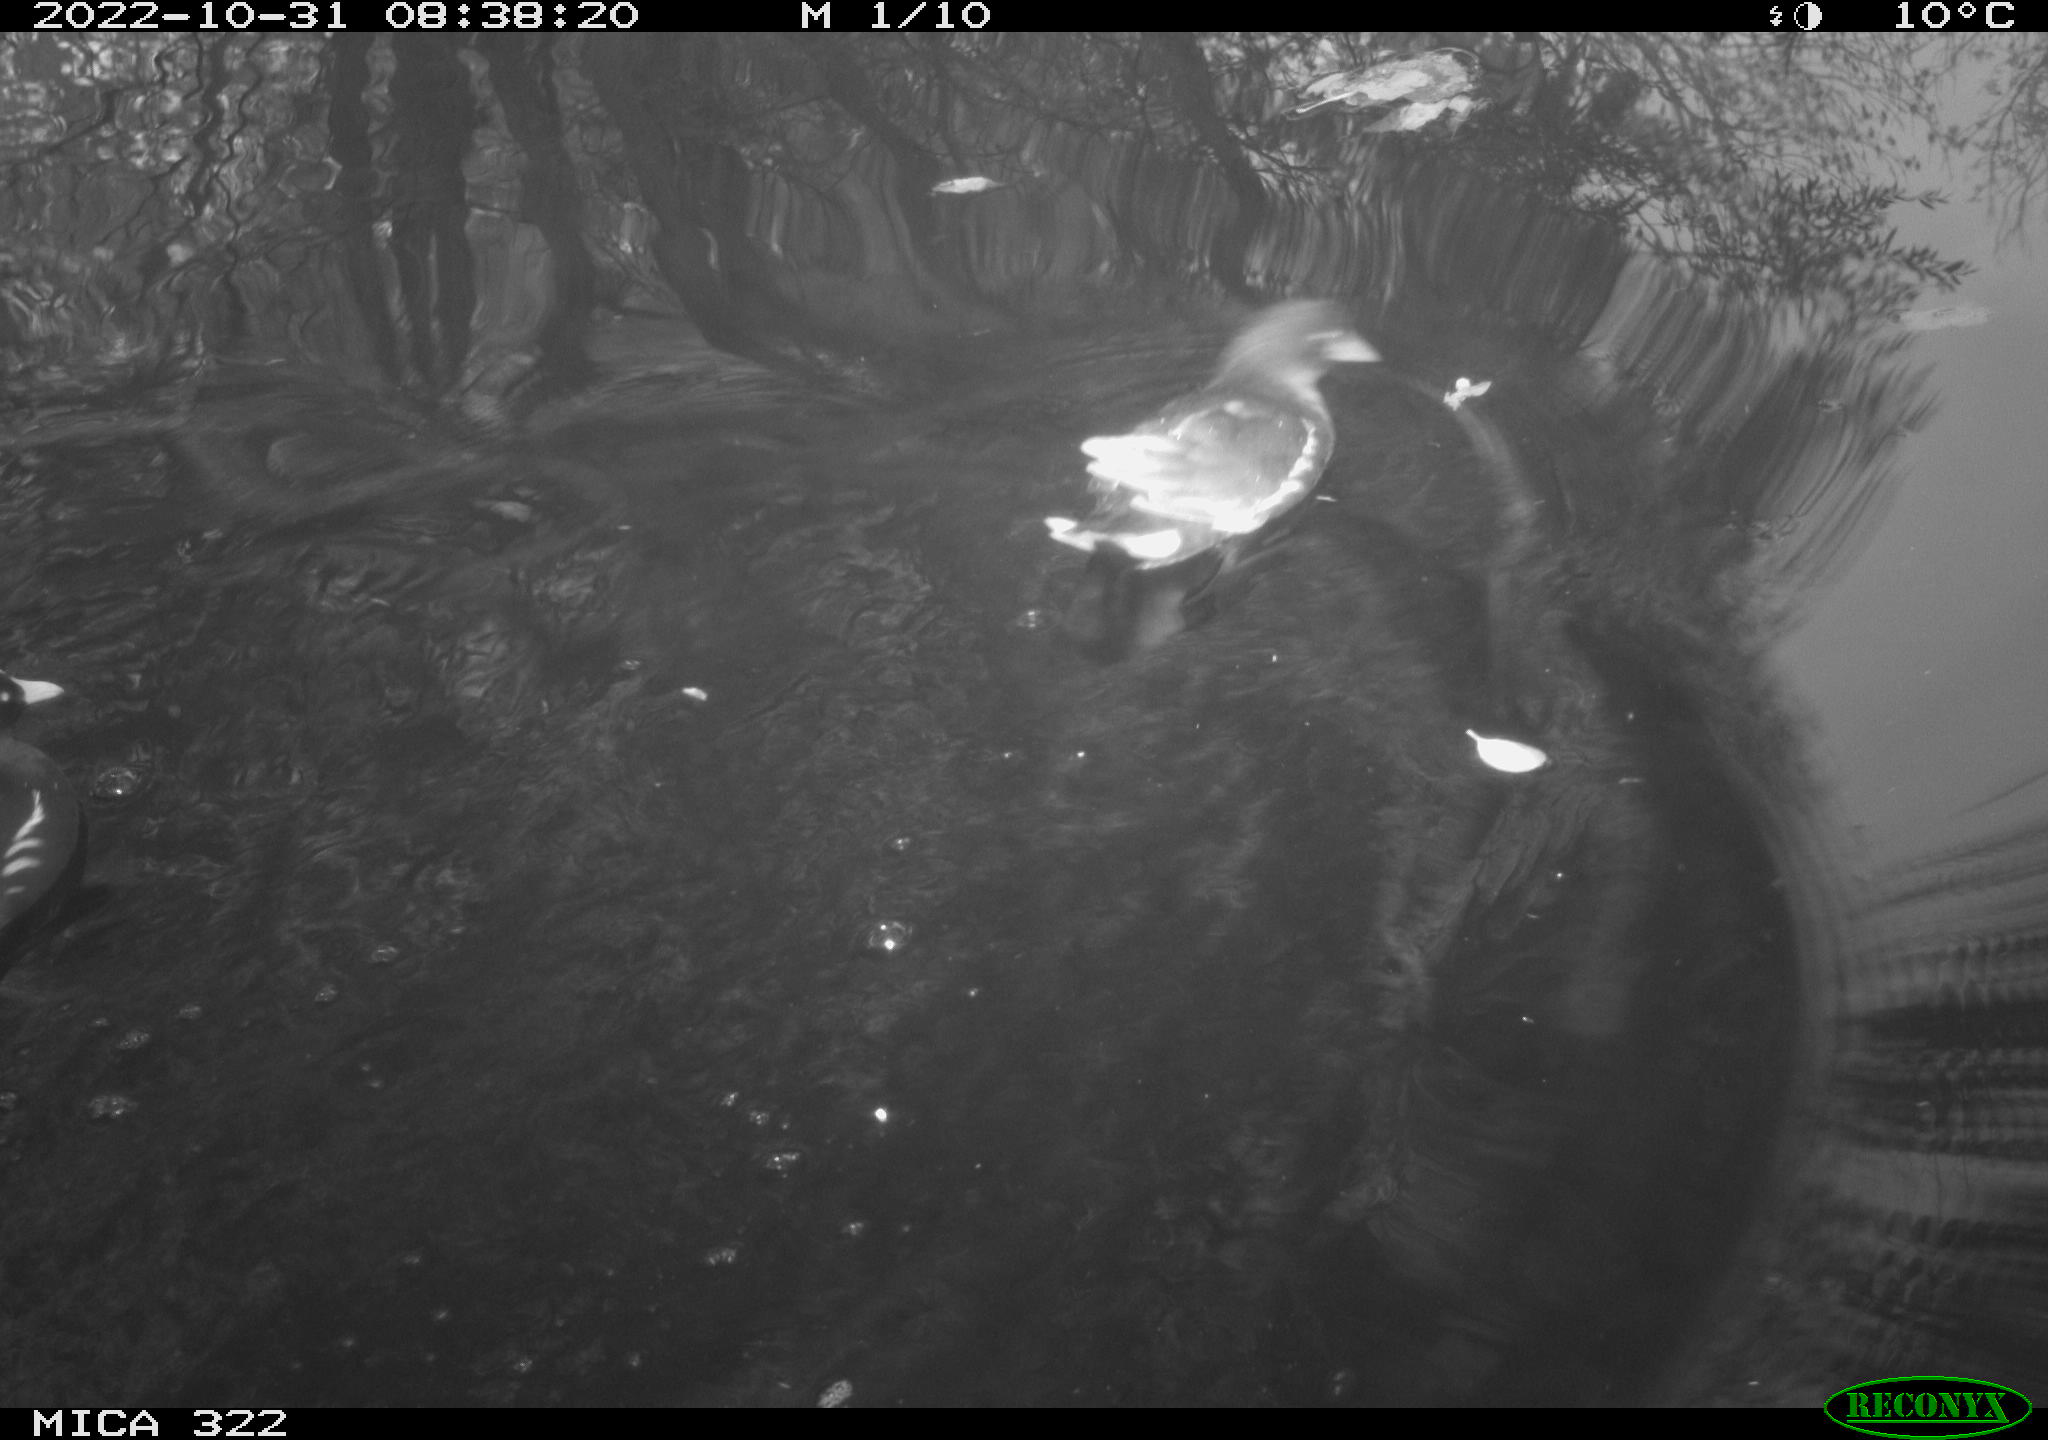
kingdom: Animalia
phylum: Chordata
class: Aves
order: Gruiformes
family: Rallidae
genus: Gallinula
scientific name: Gallinula chloropus
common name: Common moorhen
